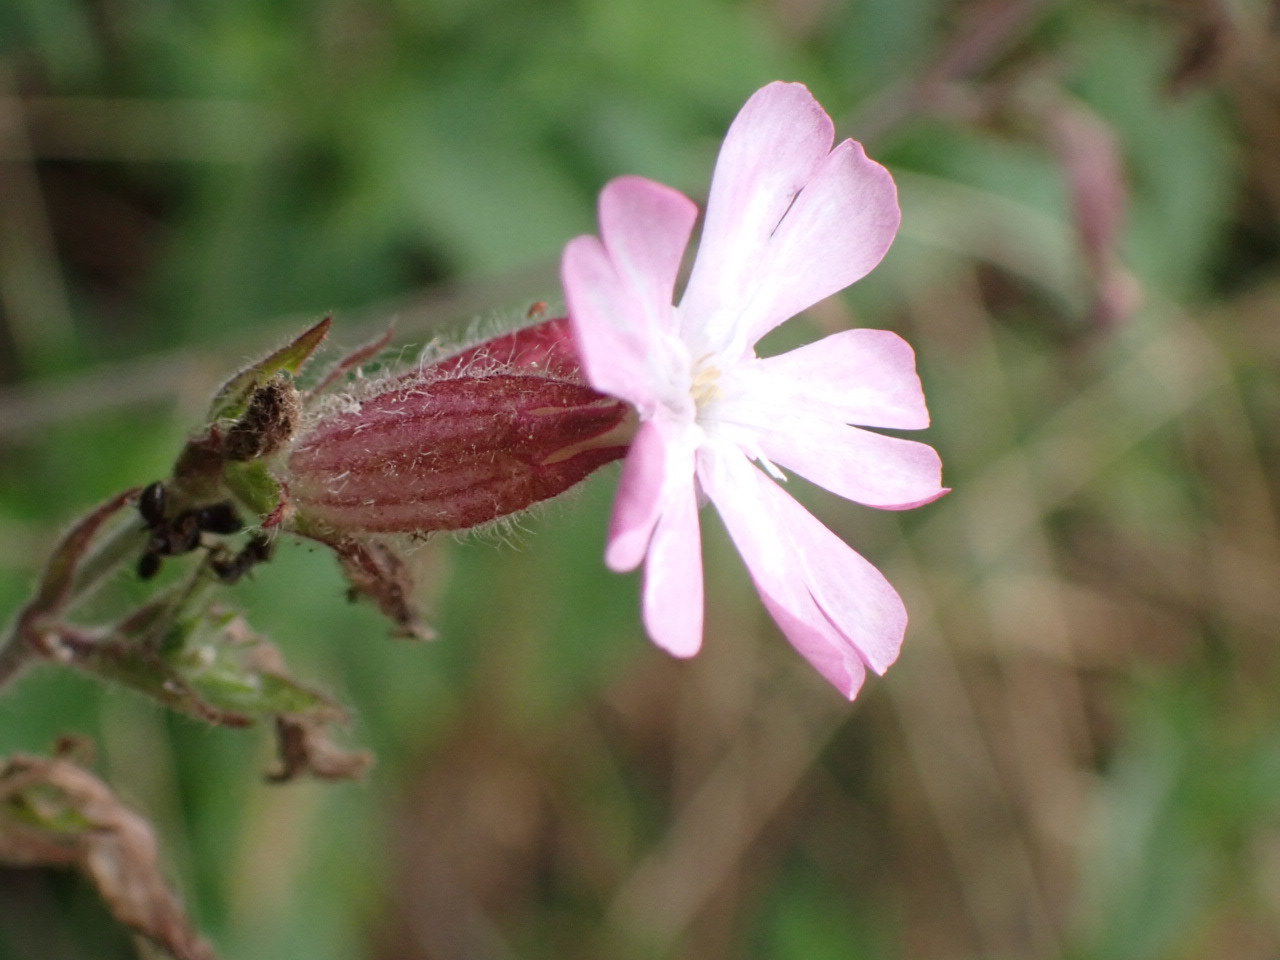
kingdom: Plantae
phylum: Tracheophyta
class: Magnoliopsida
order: Caryophyllales
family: Caryophyllaceae
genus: Silene
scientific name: Silene dioica
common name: Dagpragtstjerne
